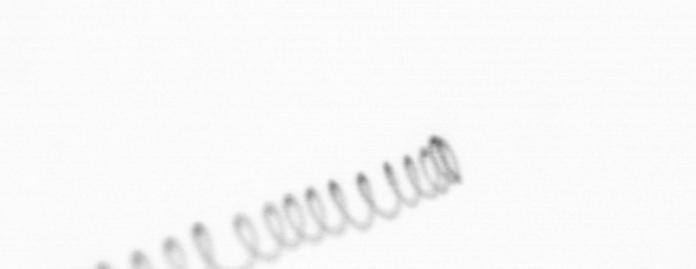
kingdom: Chromista
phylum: Ochrophyta
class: Bacillariophyceae
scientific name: Bacillariophyceae
